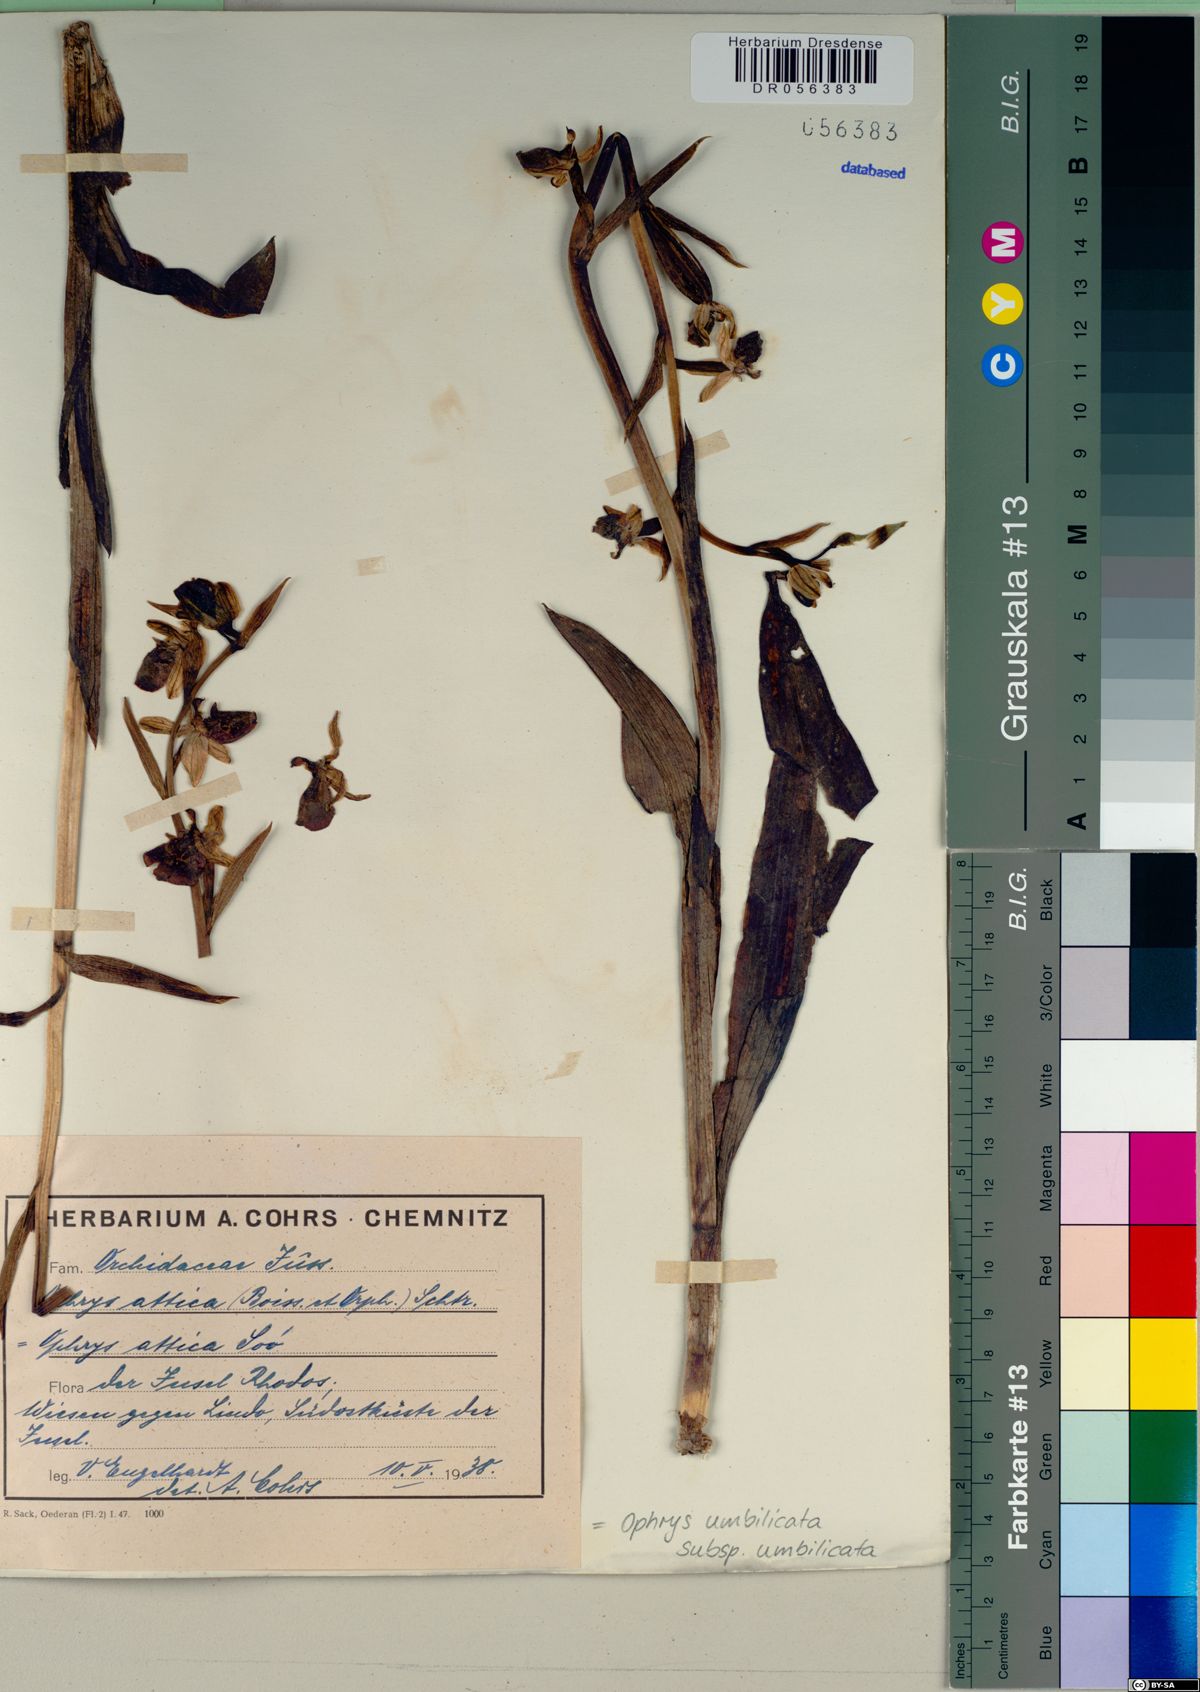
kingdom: Plantae
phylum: Tracheophyta
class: Liliopsida
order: Asparagales
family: Orchidaceae
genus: Ophrys
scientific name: Ophrys umbilicata
